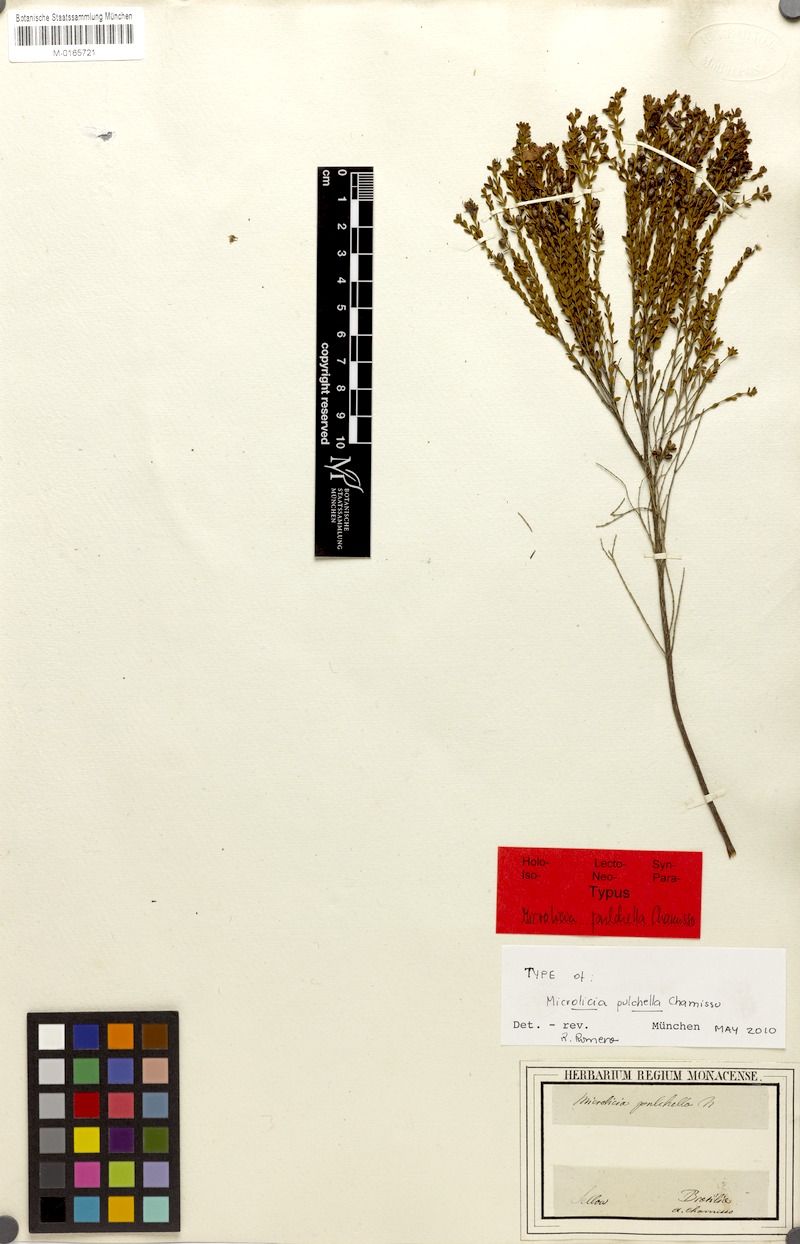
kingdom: Plantae
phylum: Tracheophyta
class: Magnoliopsida
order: Myrtales
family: Melastomataceae
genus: Microlicia
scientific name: Microlicia isophylla
